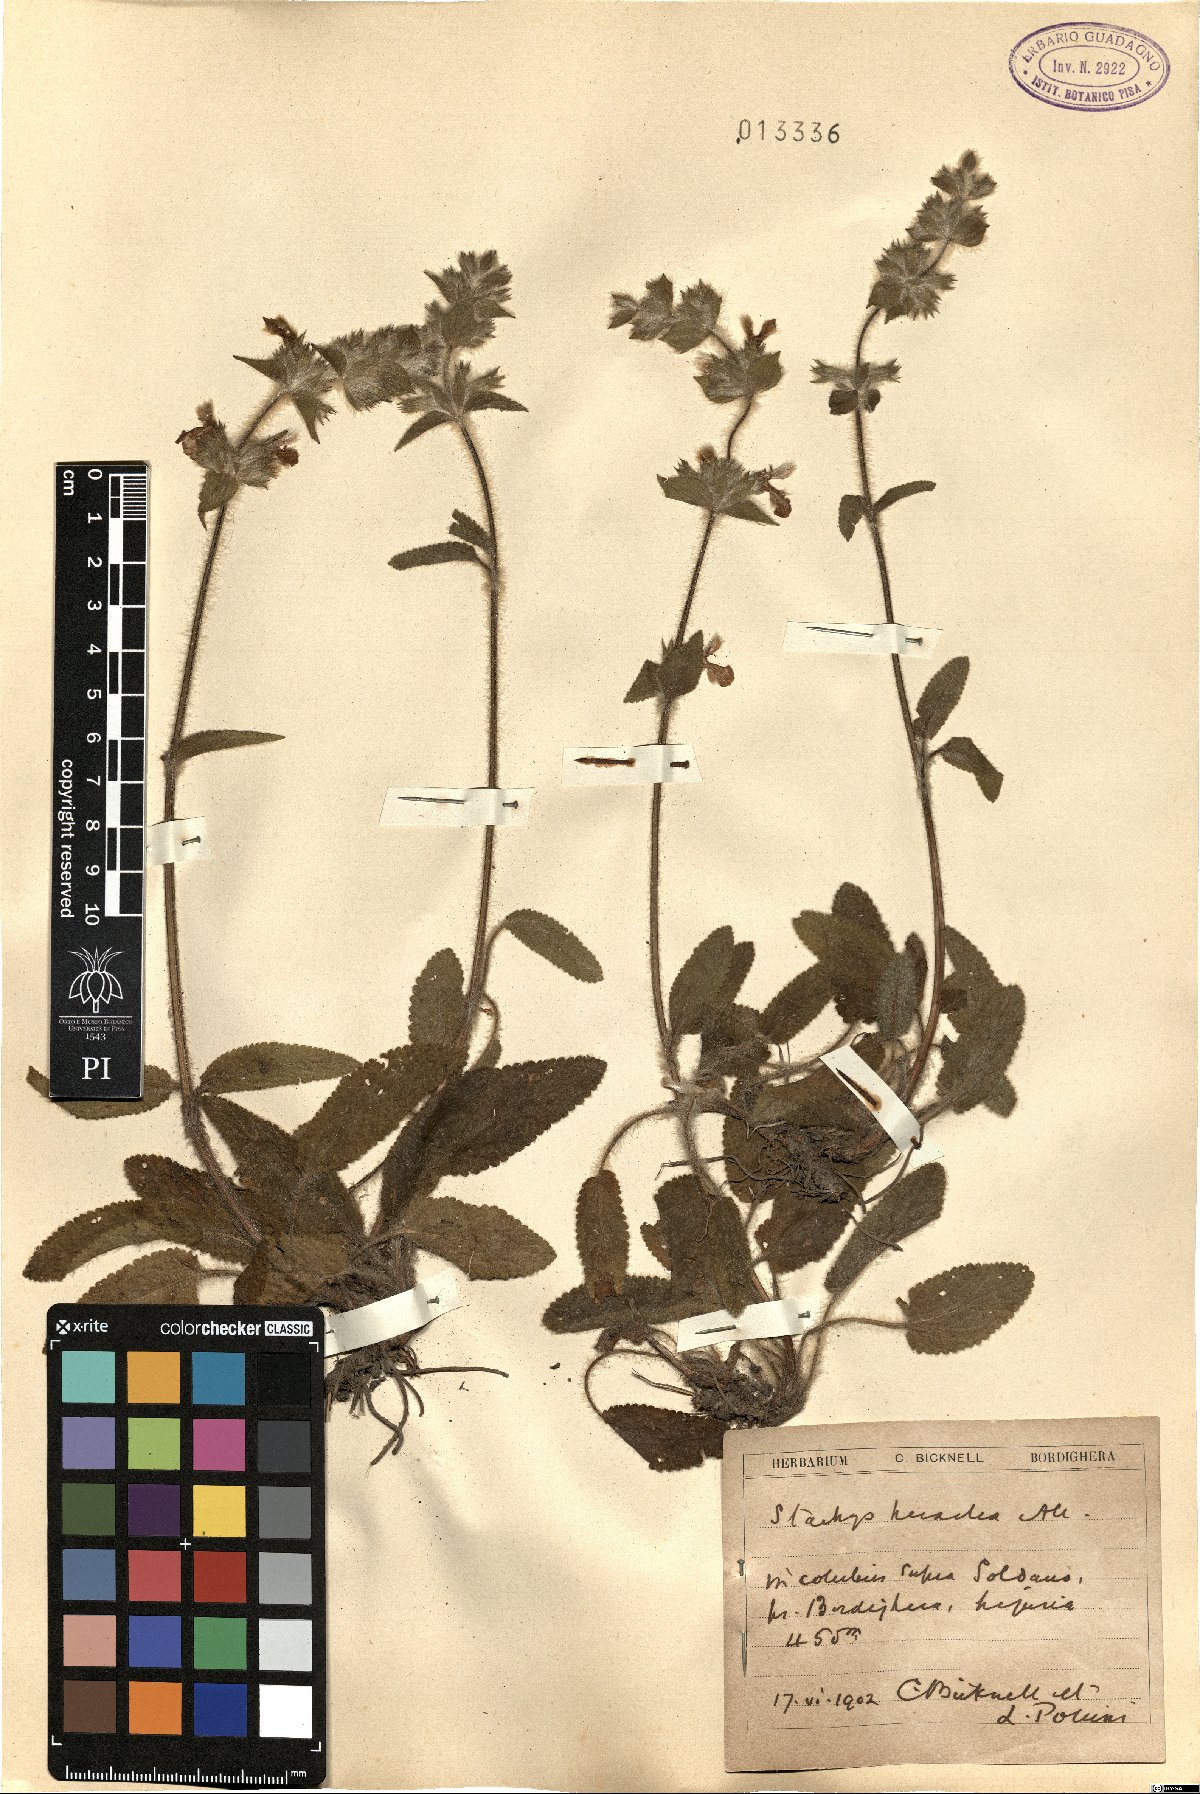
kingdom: Plantae
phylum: Tracheophyta
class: Magnoliopsida
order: Lamiales
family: Lamiaceae
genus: Stachys
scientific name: Stachys heraclea
